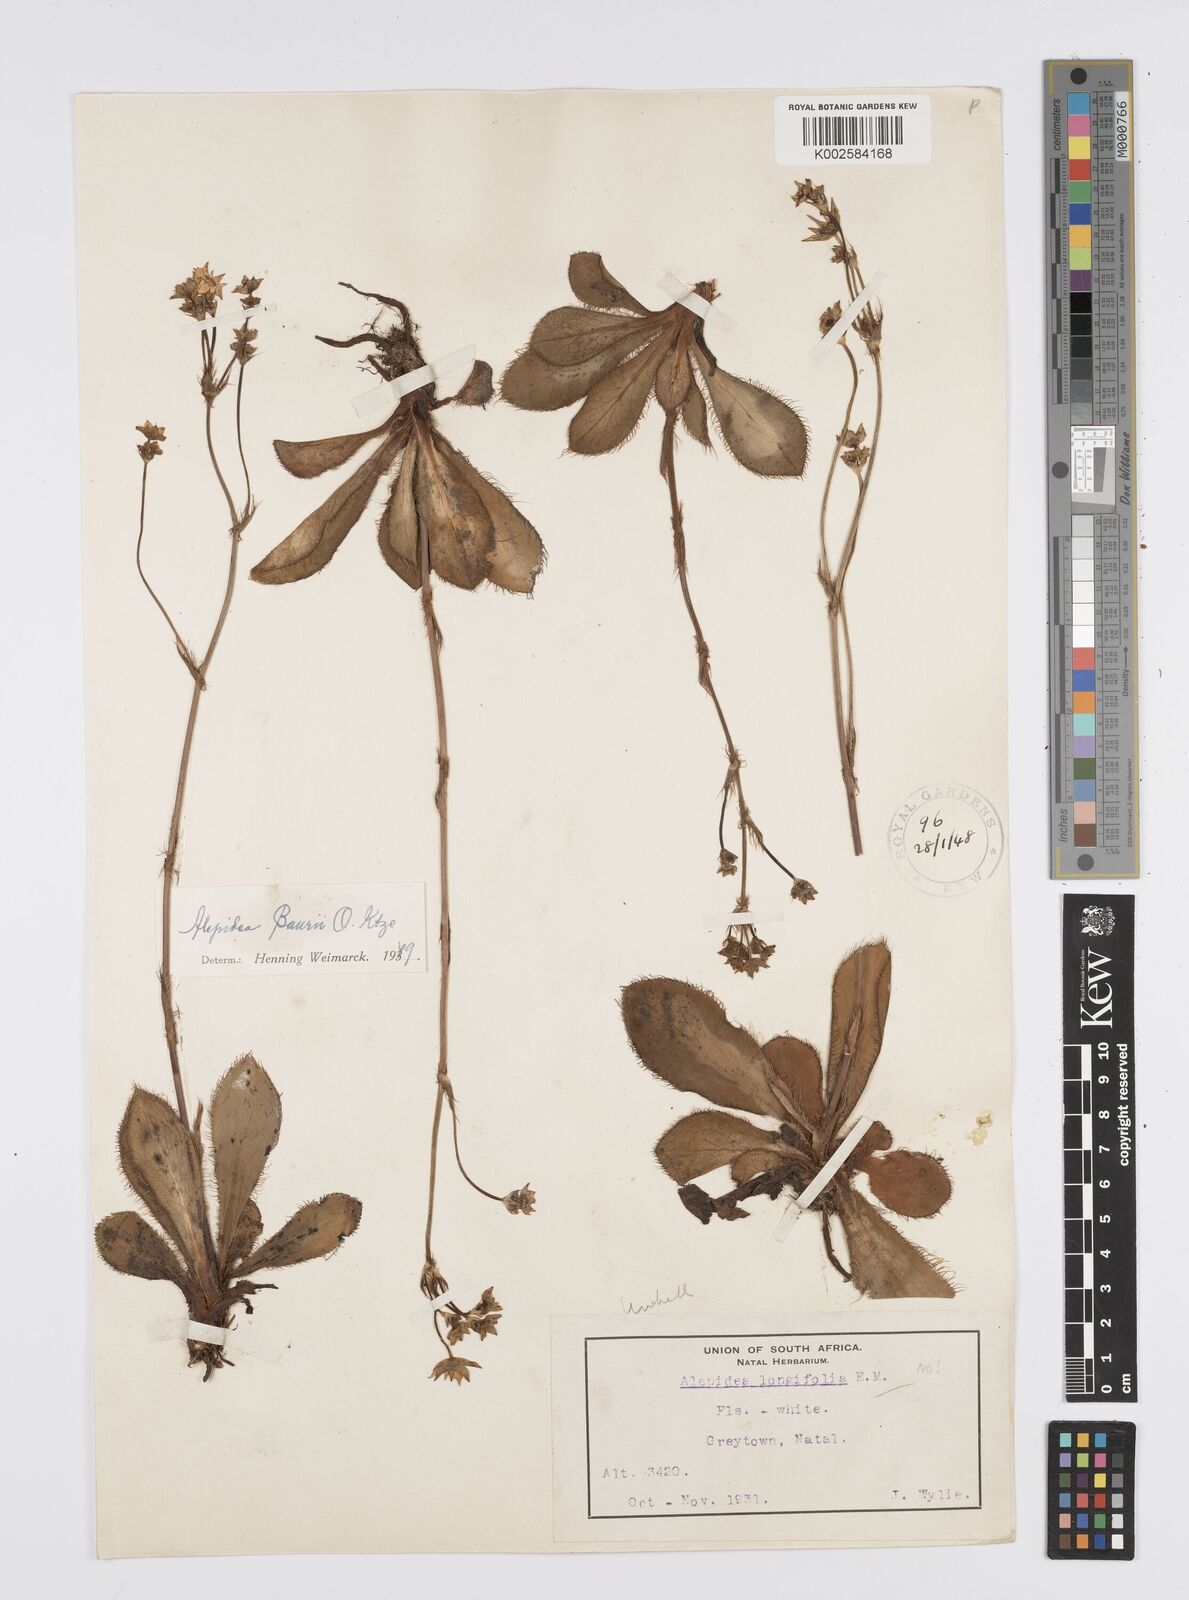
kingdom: Plantae
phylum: Tracheophyta
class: Magnoliopsida
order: Apiales
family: Apiaceae
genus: Alepidea
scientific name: Alepidea natalensis
